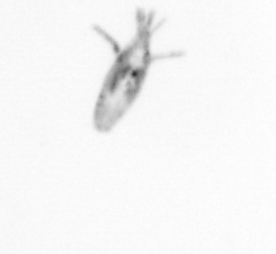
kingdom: Animalia
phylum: Arthropoda
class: Copepoda
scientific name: Copepoda
